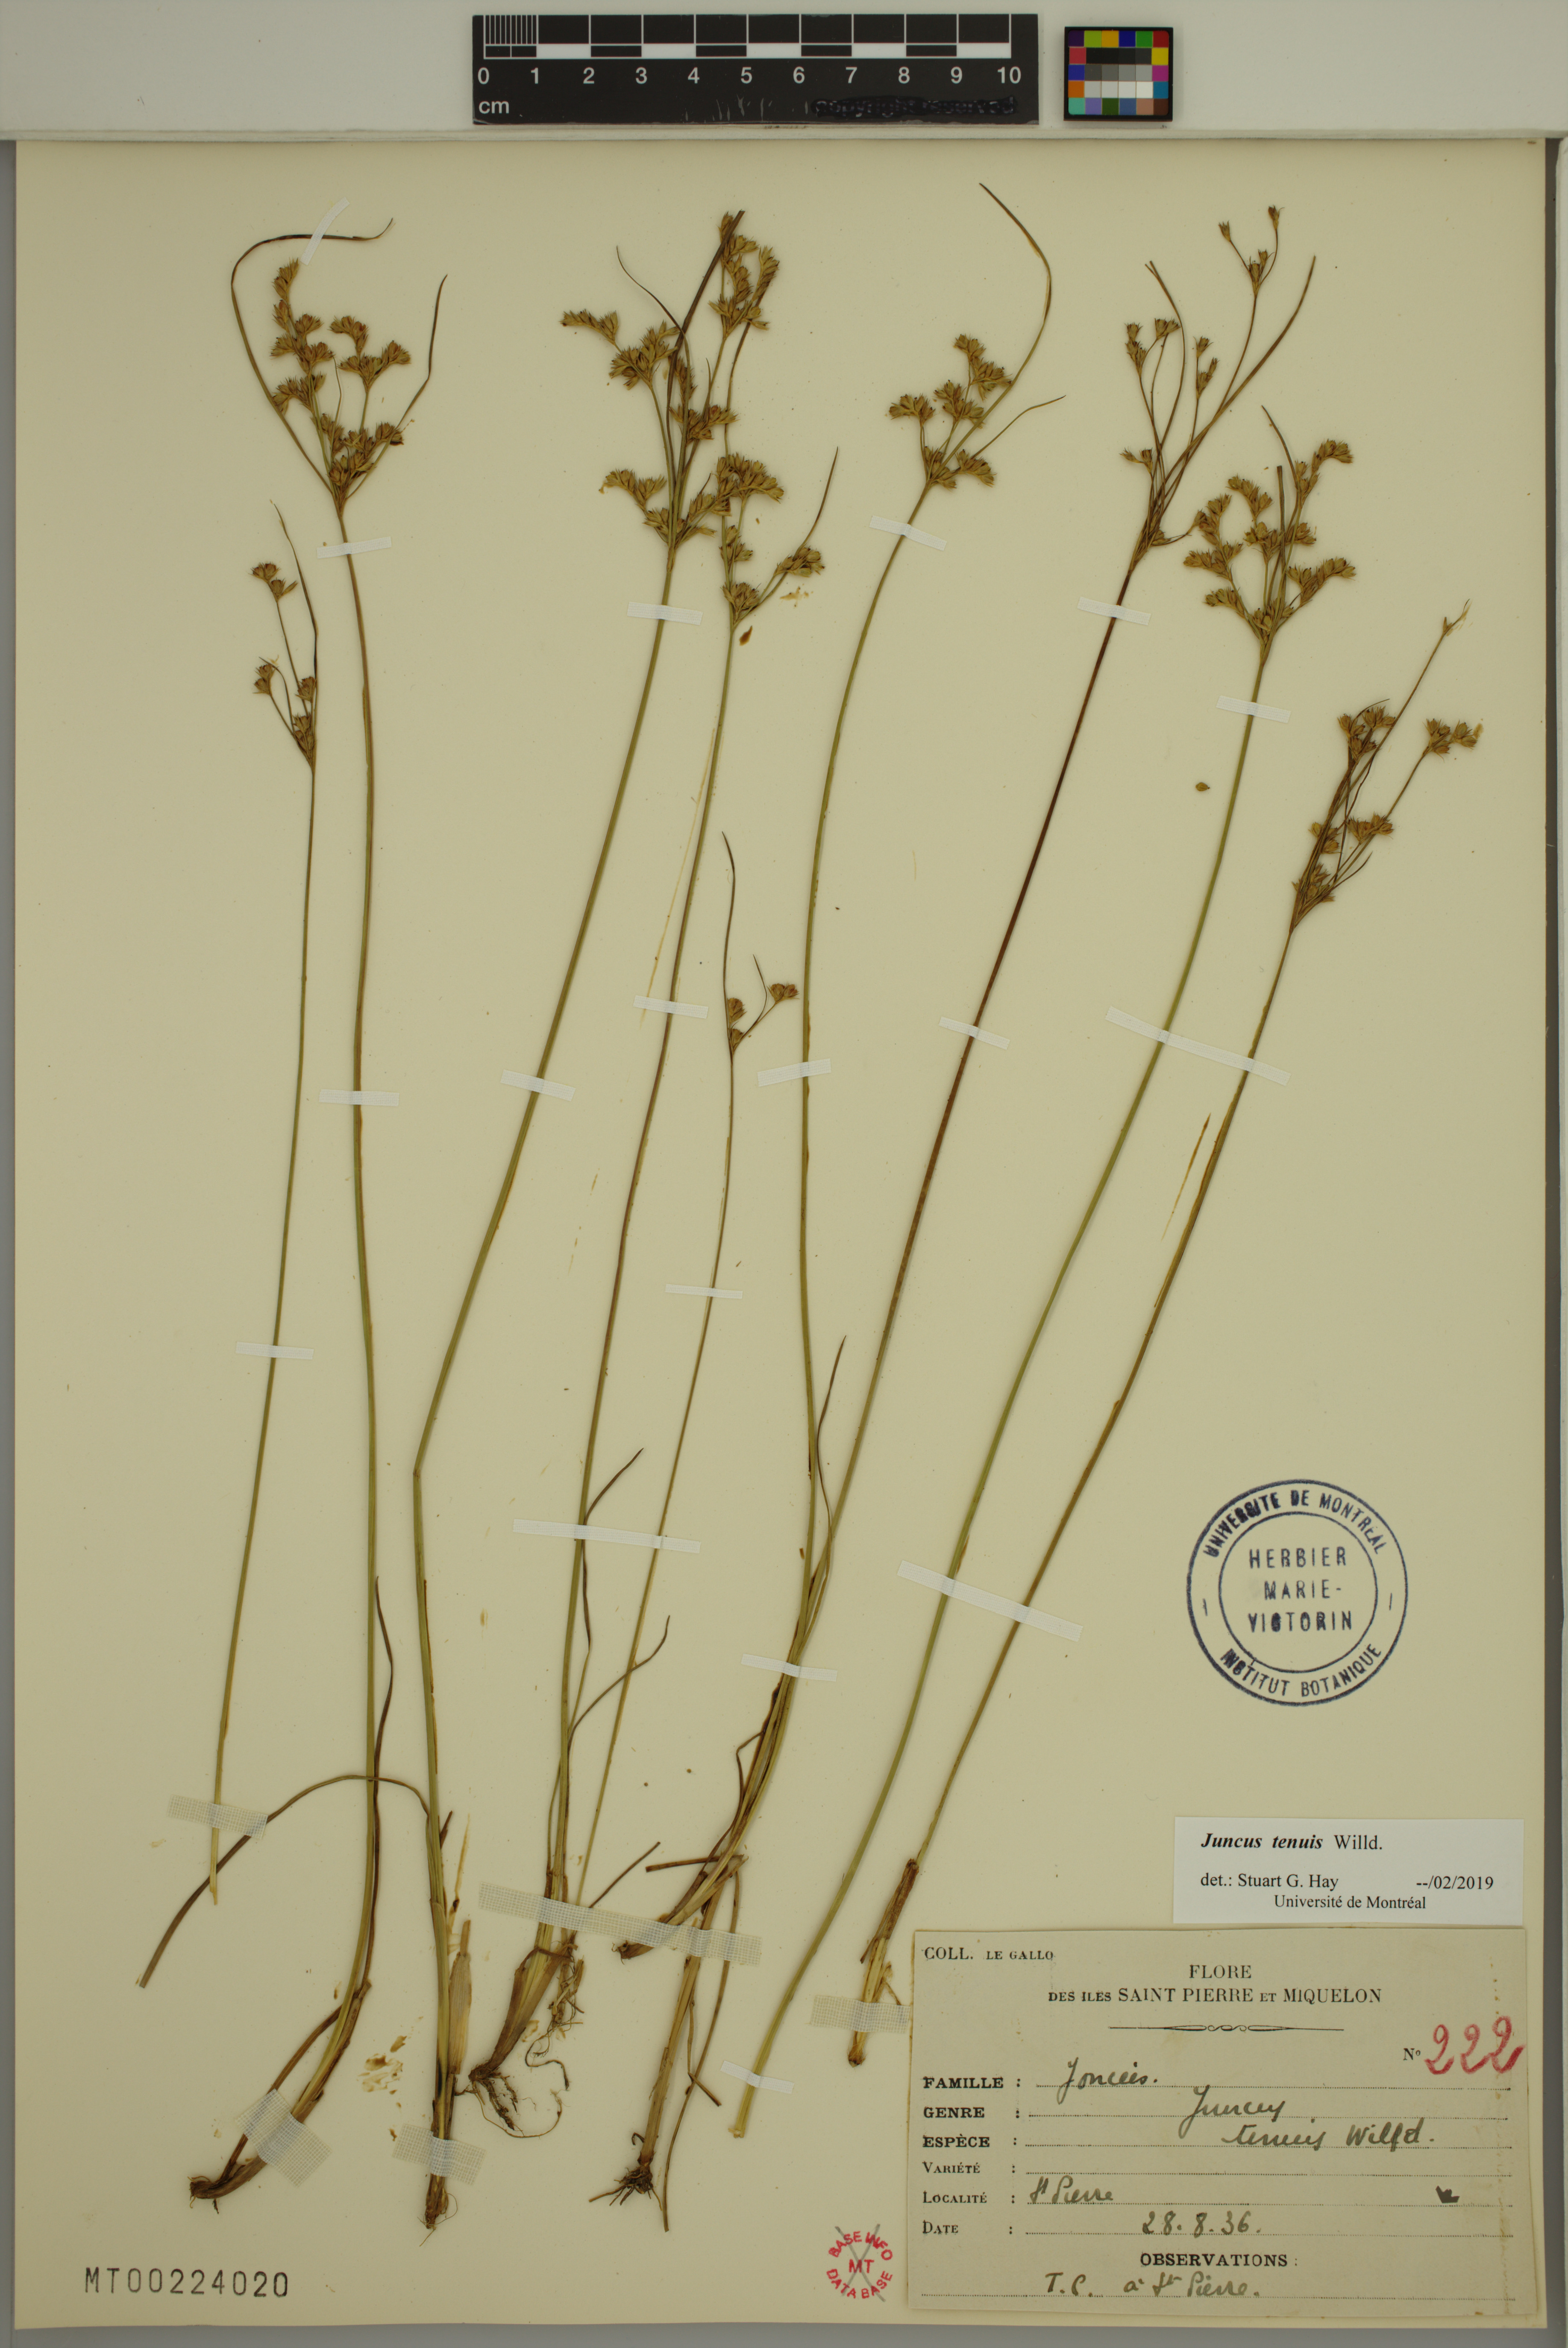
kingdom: Plantae
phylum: Tracheophyta
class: Liliopsida
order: Poales
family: Juncaceae
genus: Juncus
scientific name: Juncus tenuis
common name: Slender rush
